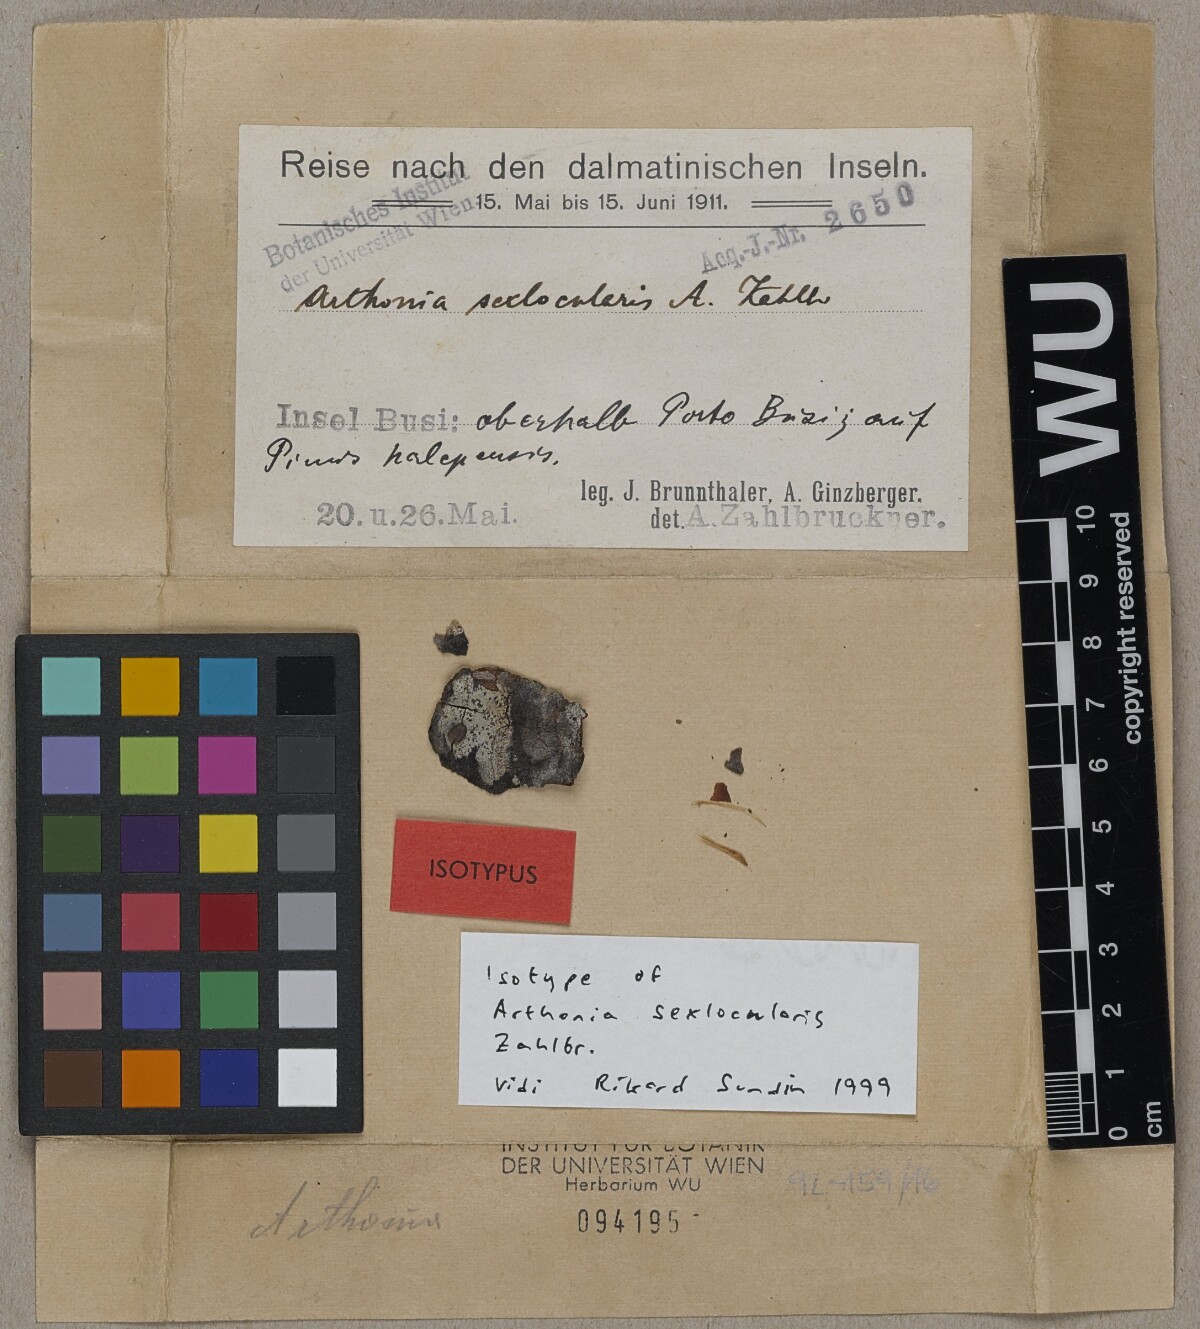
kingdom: Fungi
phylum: Ascomycota
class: Arthoniomycetes
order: Arthoniales
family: Arthoniaceae
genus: Arthonia
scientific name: Arthonia sexlocularis
